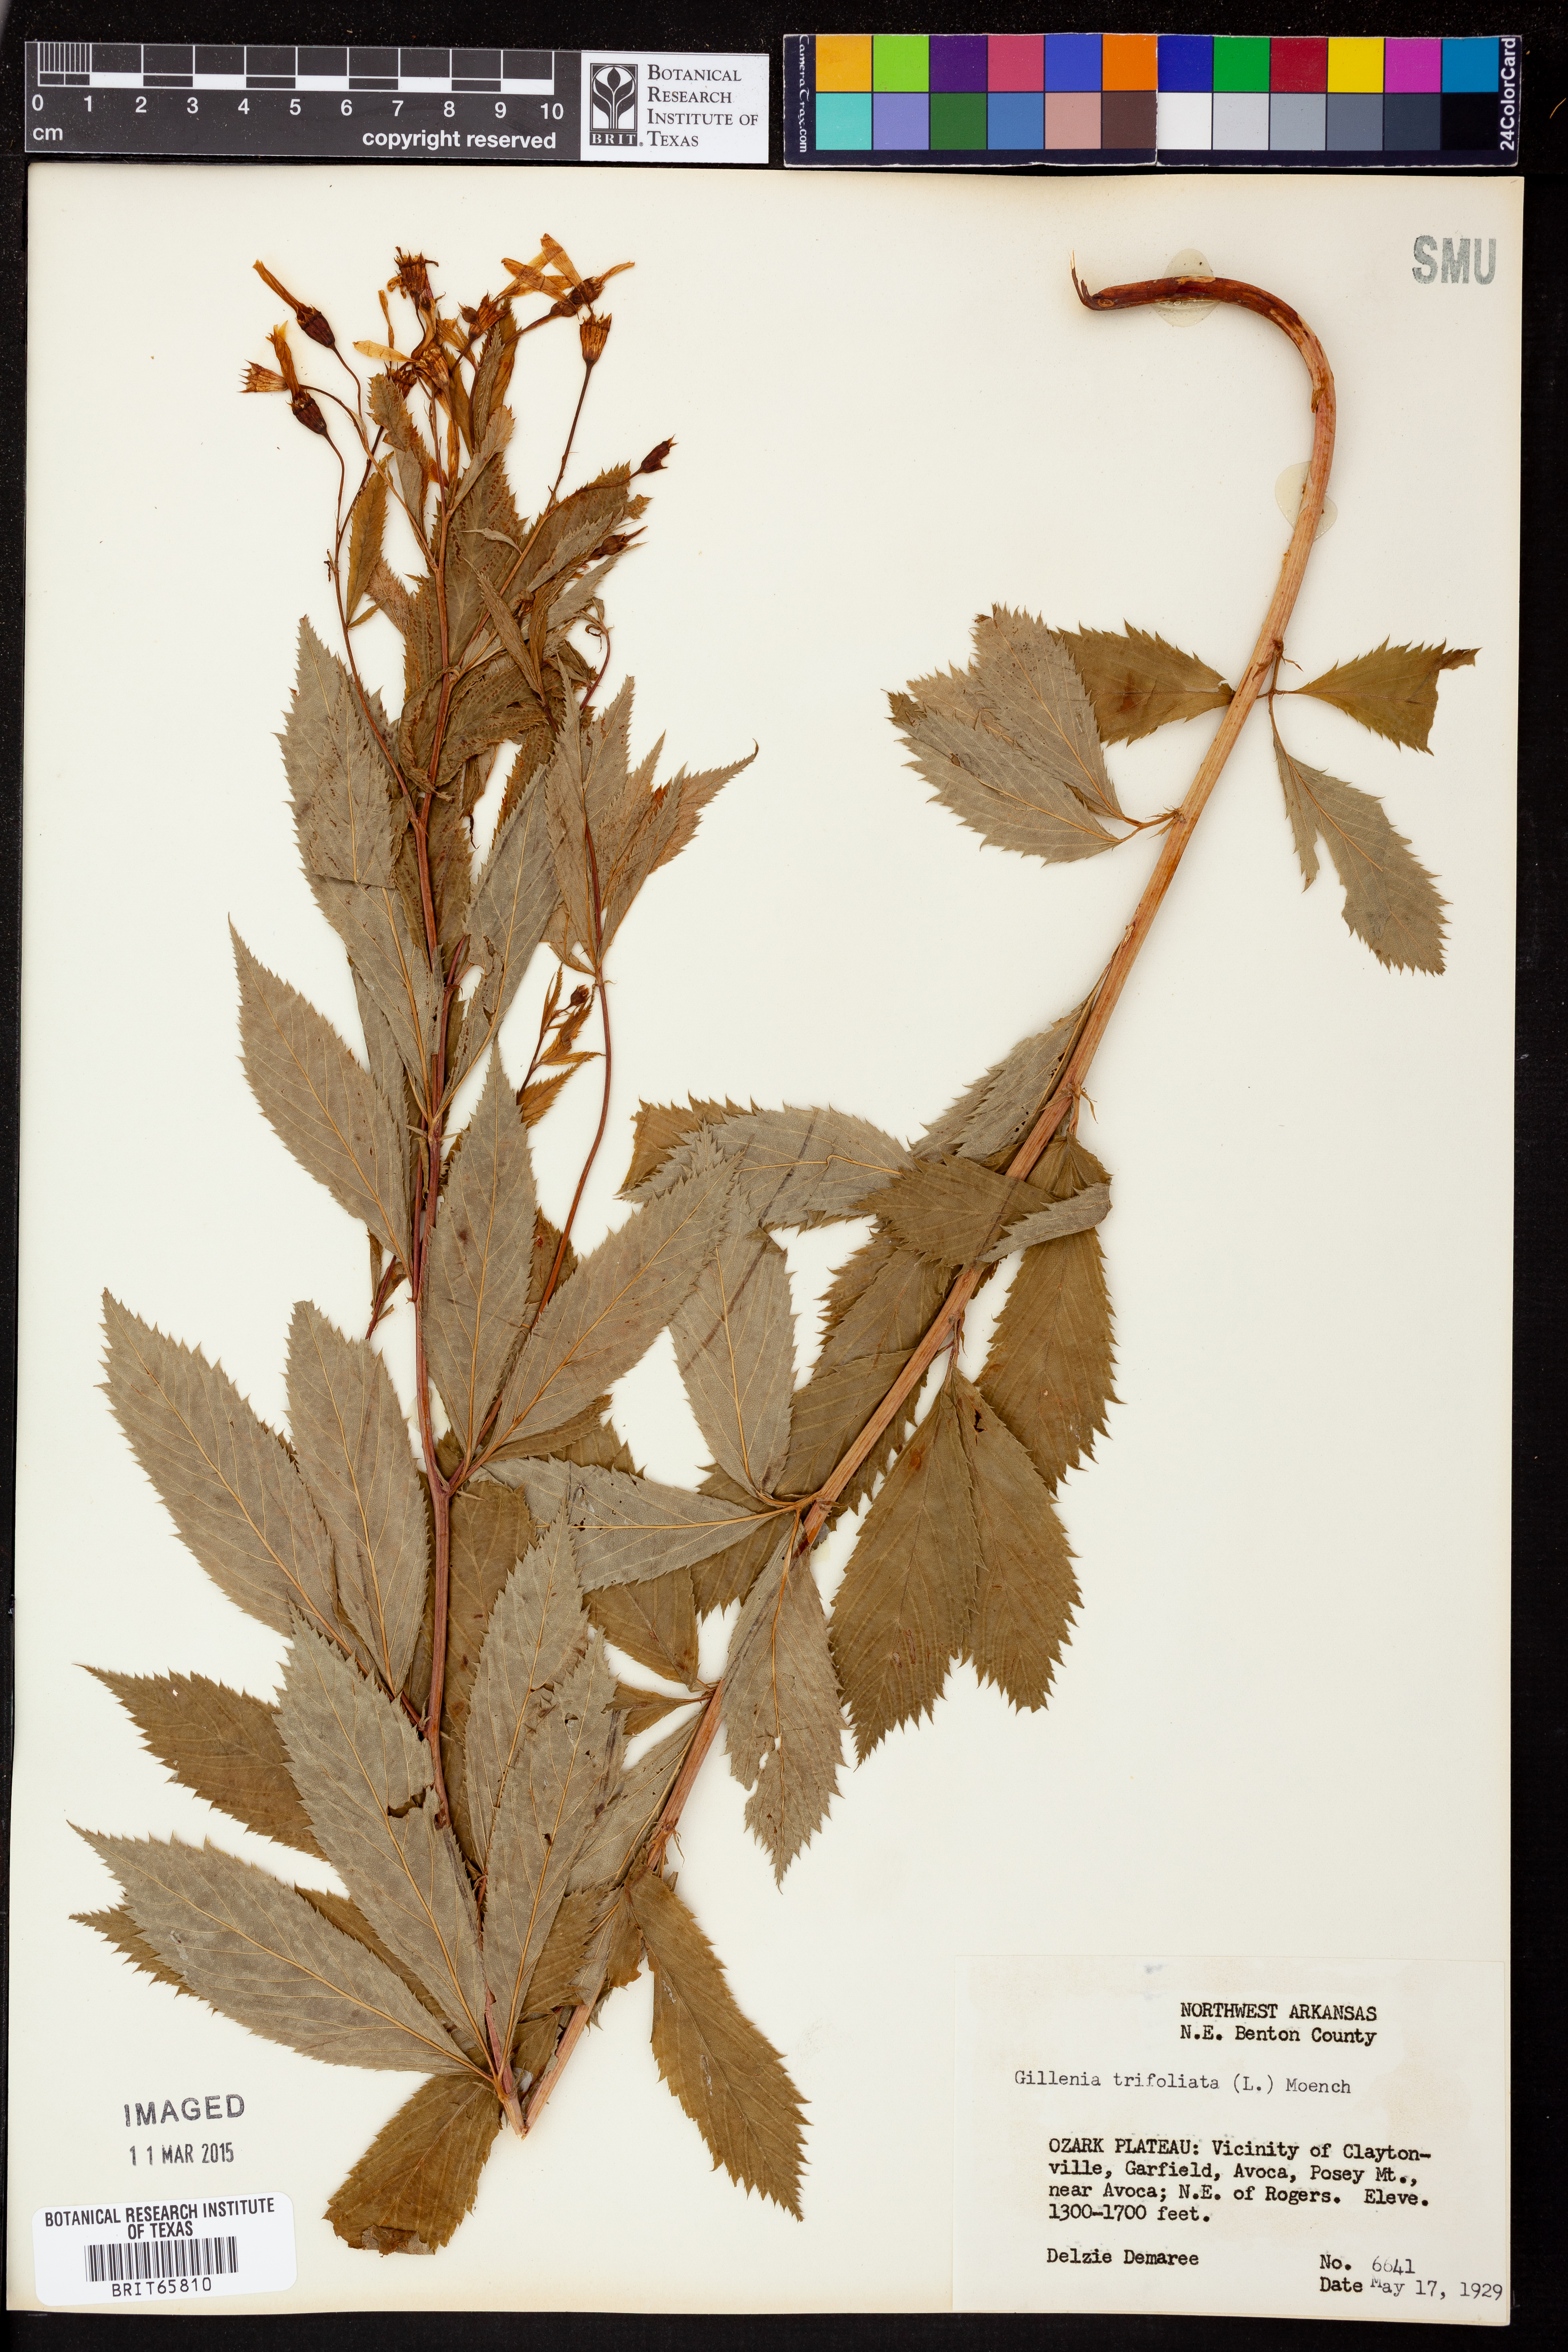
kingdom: Plantae
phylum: Tracheophyta
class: Magnoliopsida
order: Rosales
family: Rosaceae
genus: Gillenia
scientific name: Gillenia trifoliata
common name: Bowman's-root
